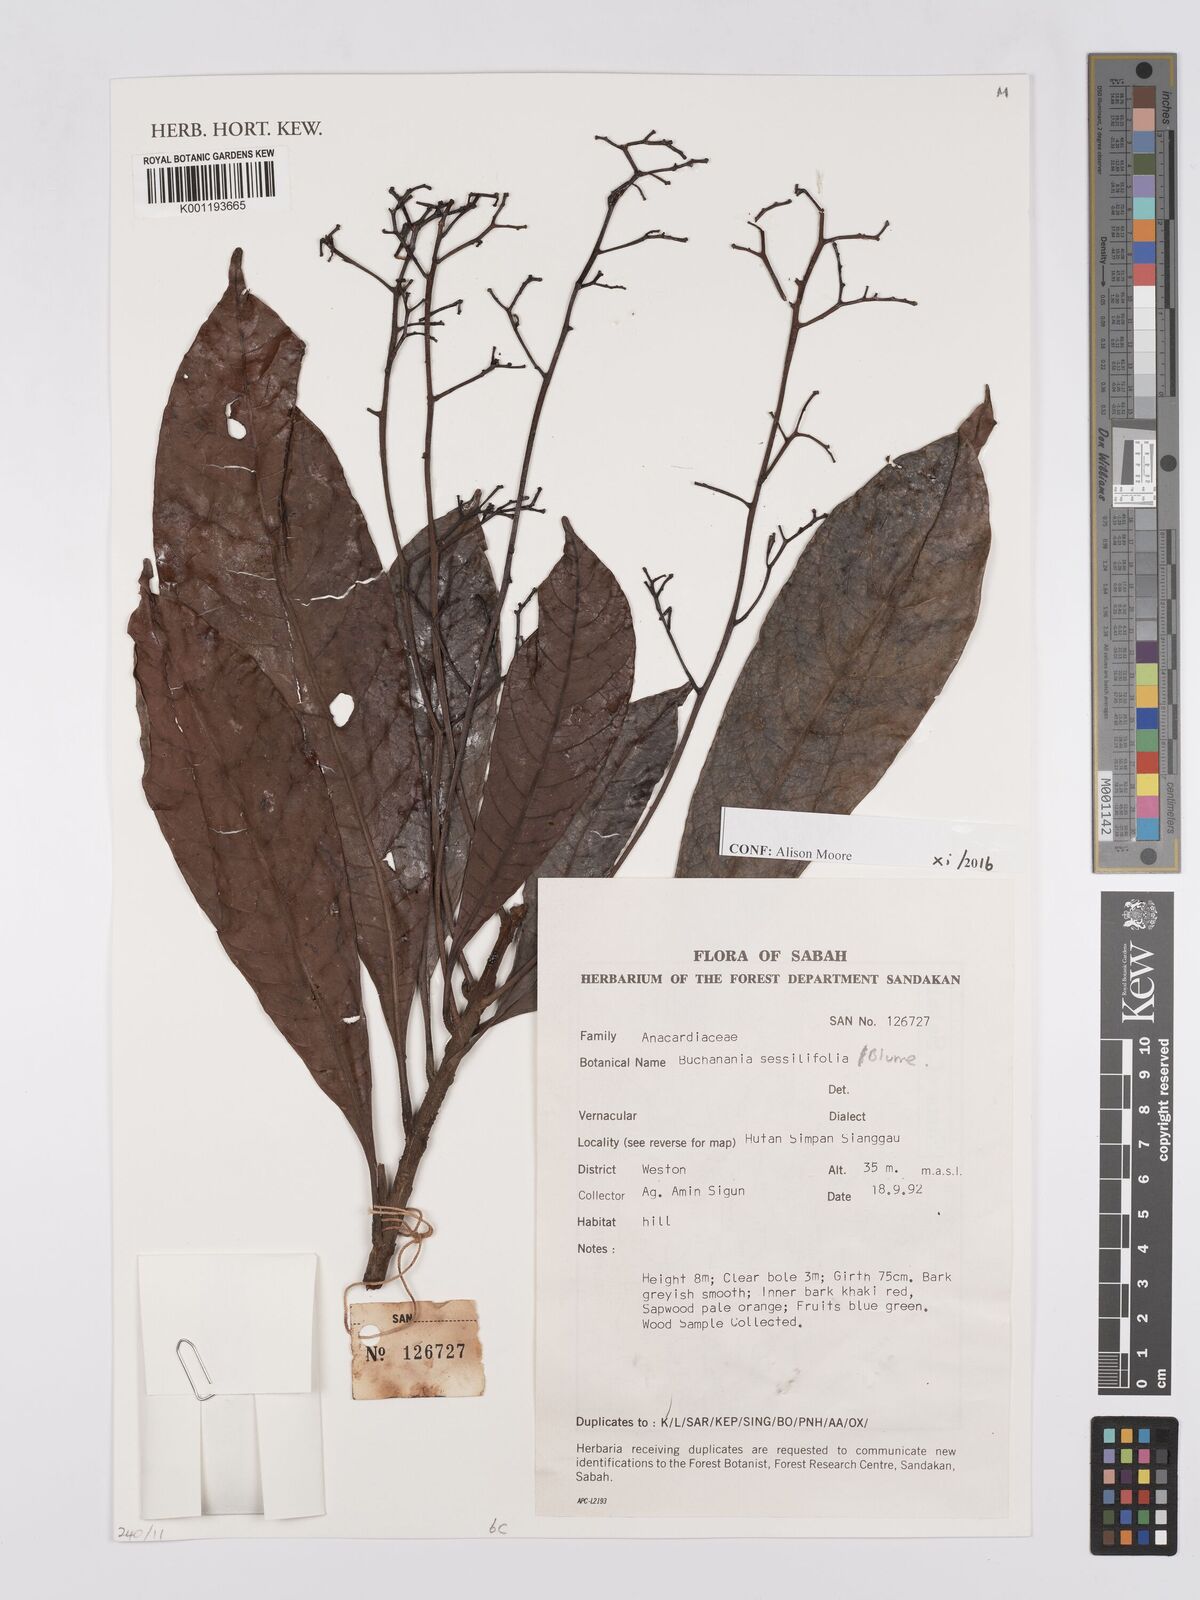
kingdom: Plantae
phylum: Tracheophyta
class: Magnoliopsida
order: Sapindales
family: Anacardiaceae
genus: Buchanania
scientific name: Buchanania sessifolia
